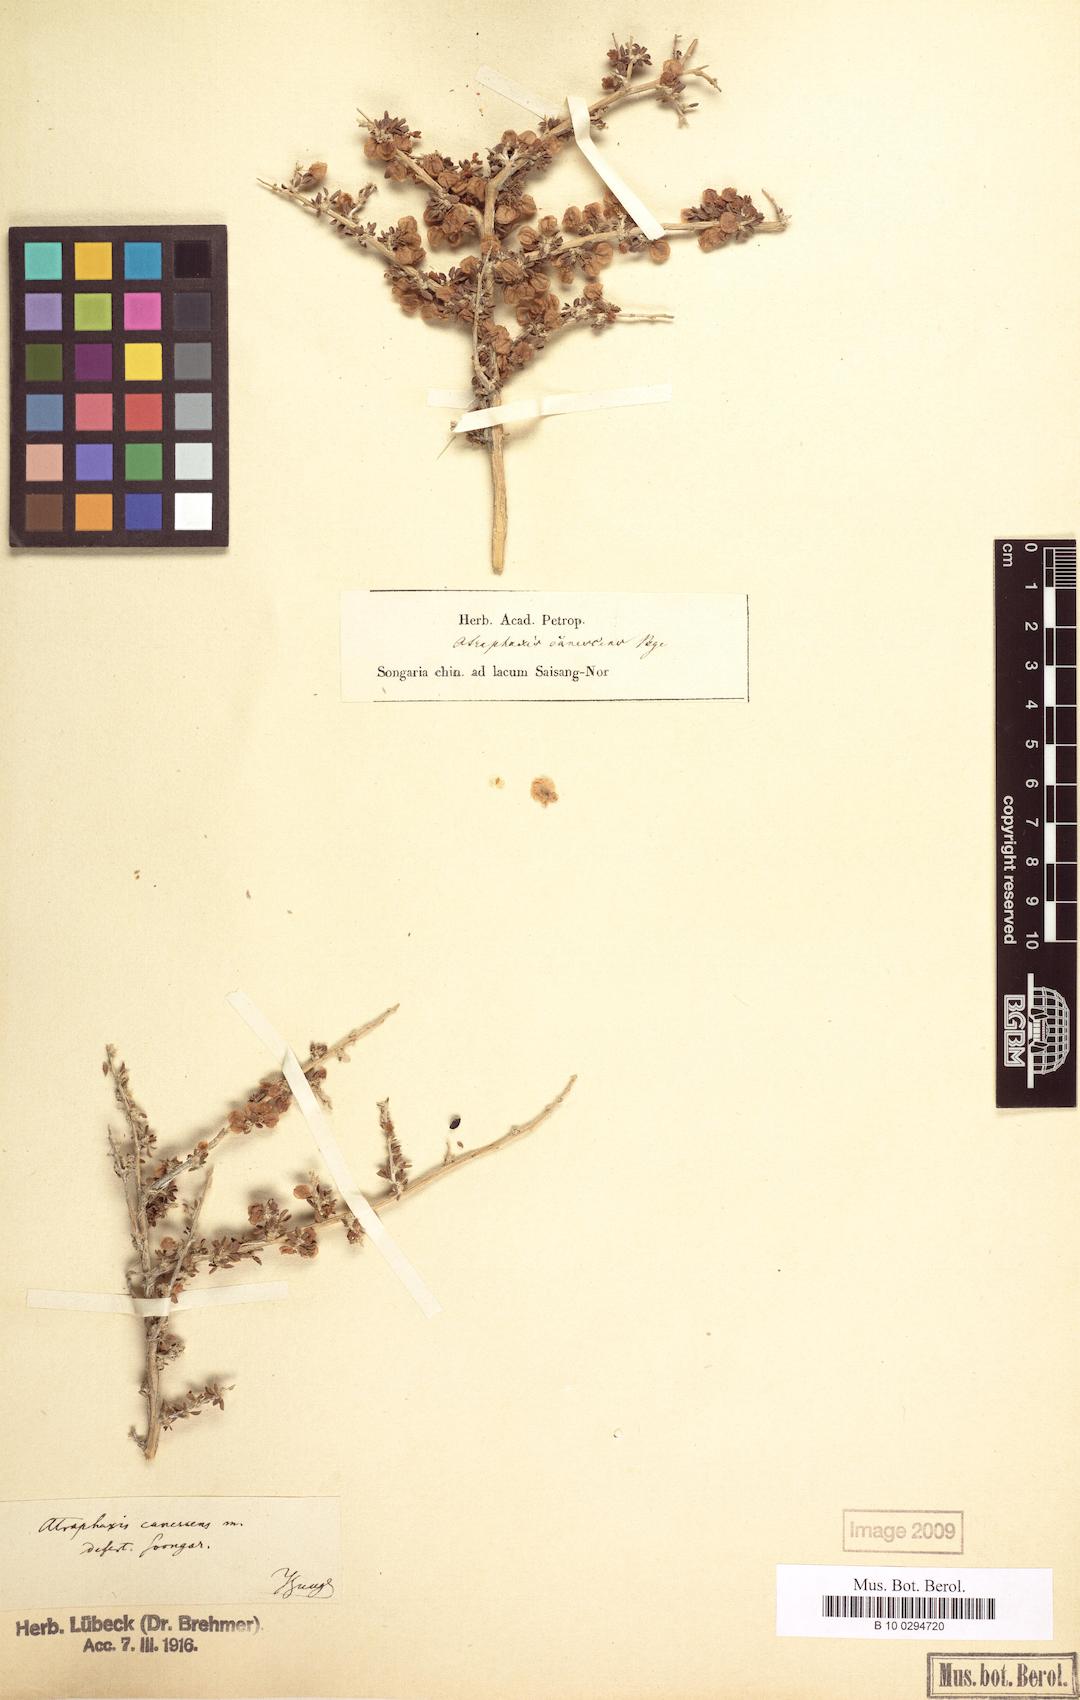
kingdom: Plantae
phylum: Tracheophyta
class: Magnoliopsida
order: Caryophyllales
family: Polygonaceae
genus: Atraphaxis
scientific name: Atraphaxis canescens
